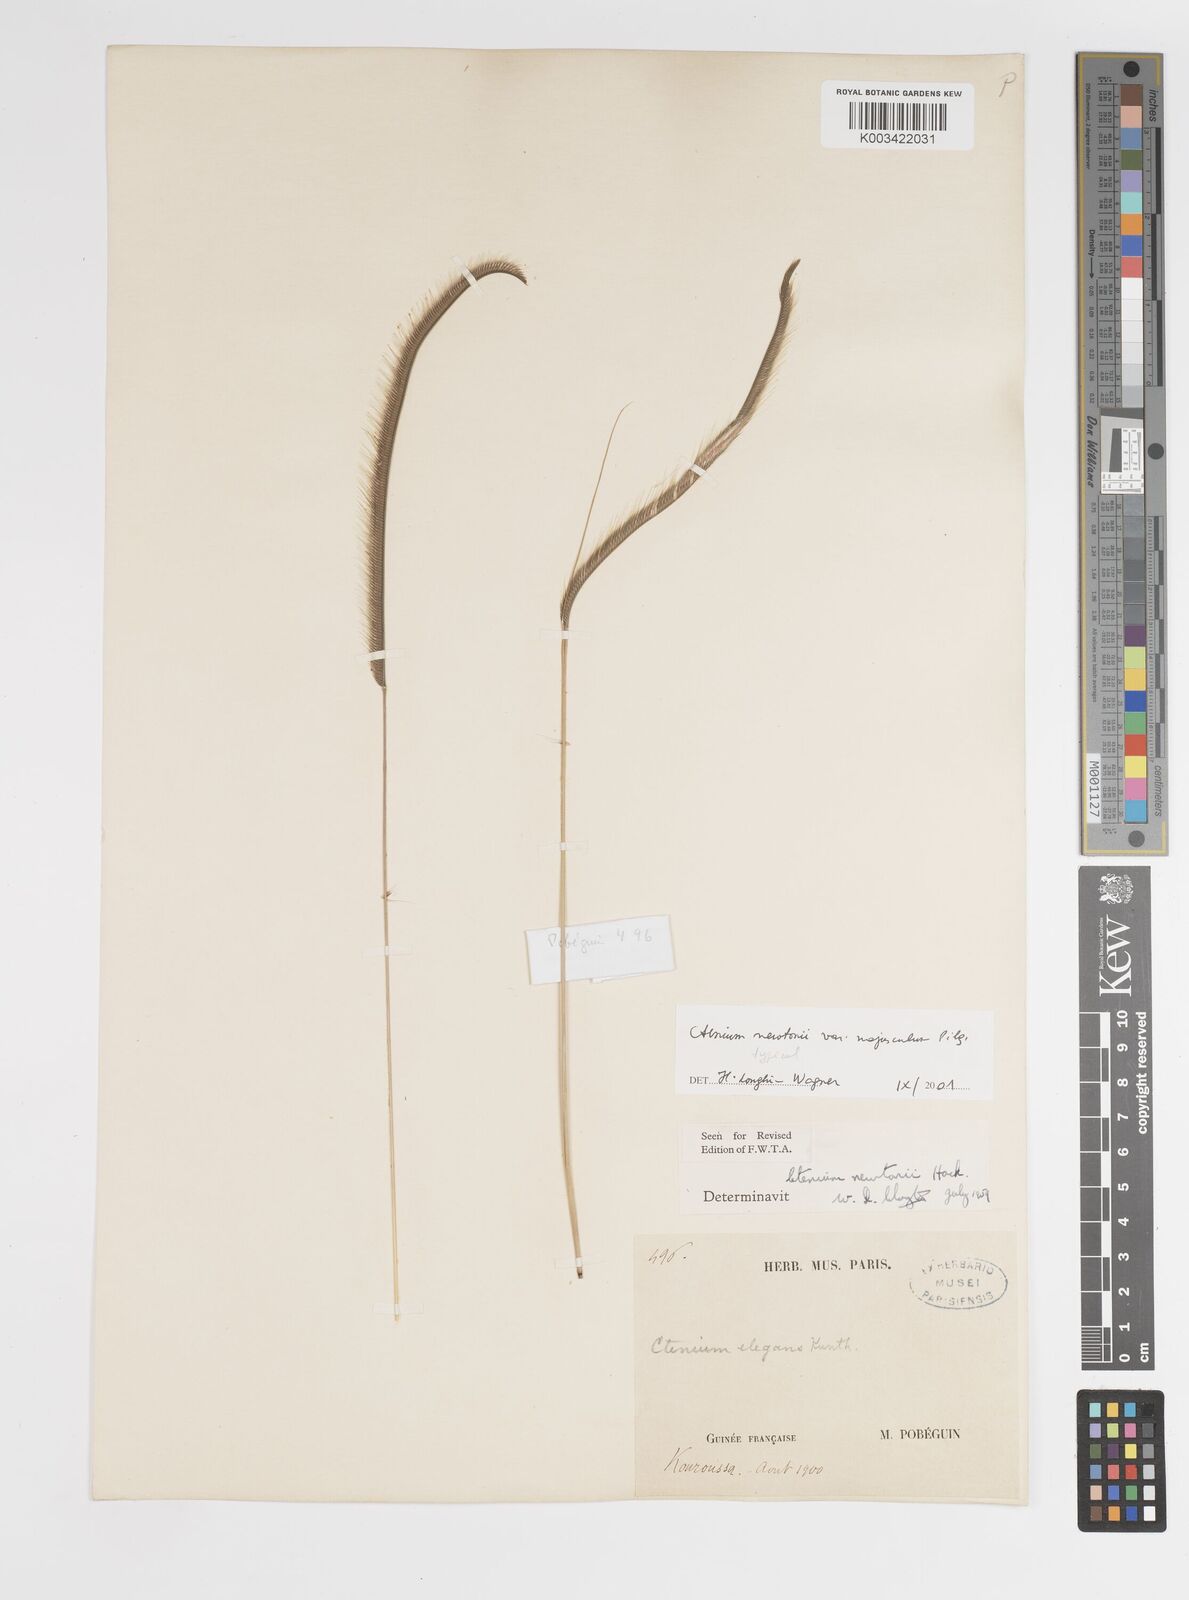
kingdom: Plantae
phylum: Tracheophyta
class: Liliopsida
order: Poales
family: Poaceae
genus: Ctenium
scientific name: Ctenium newtonii
